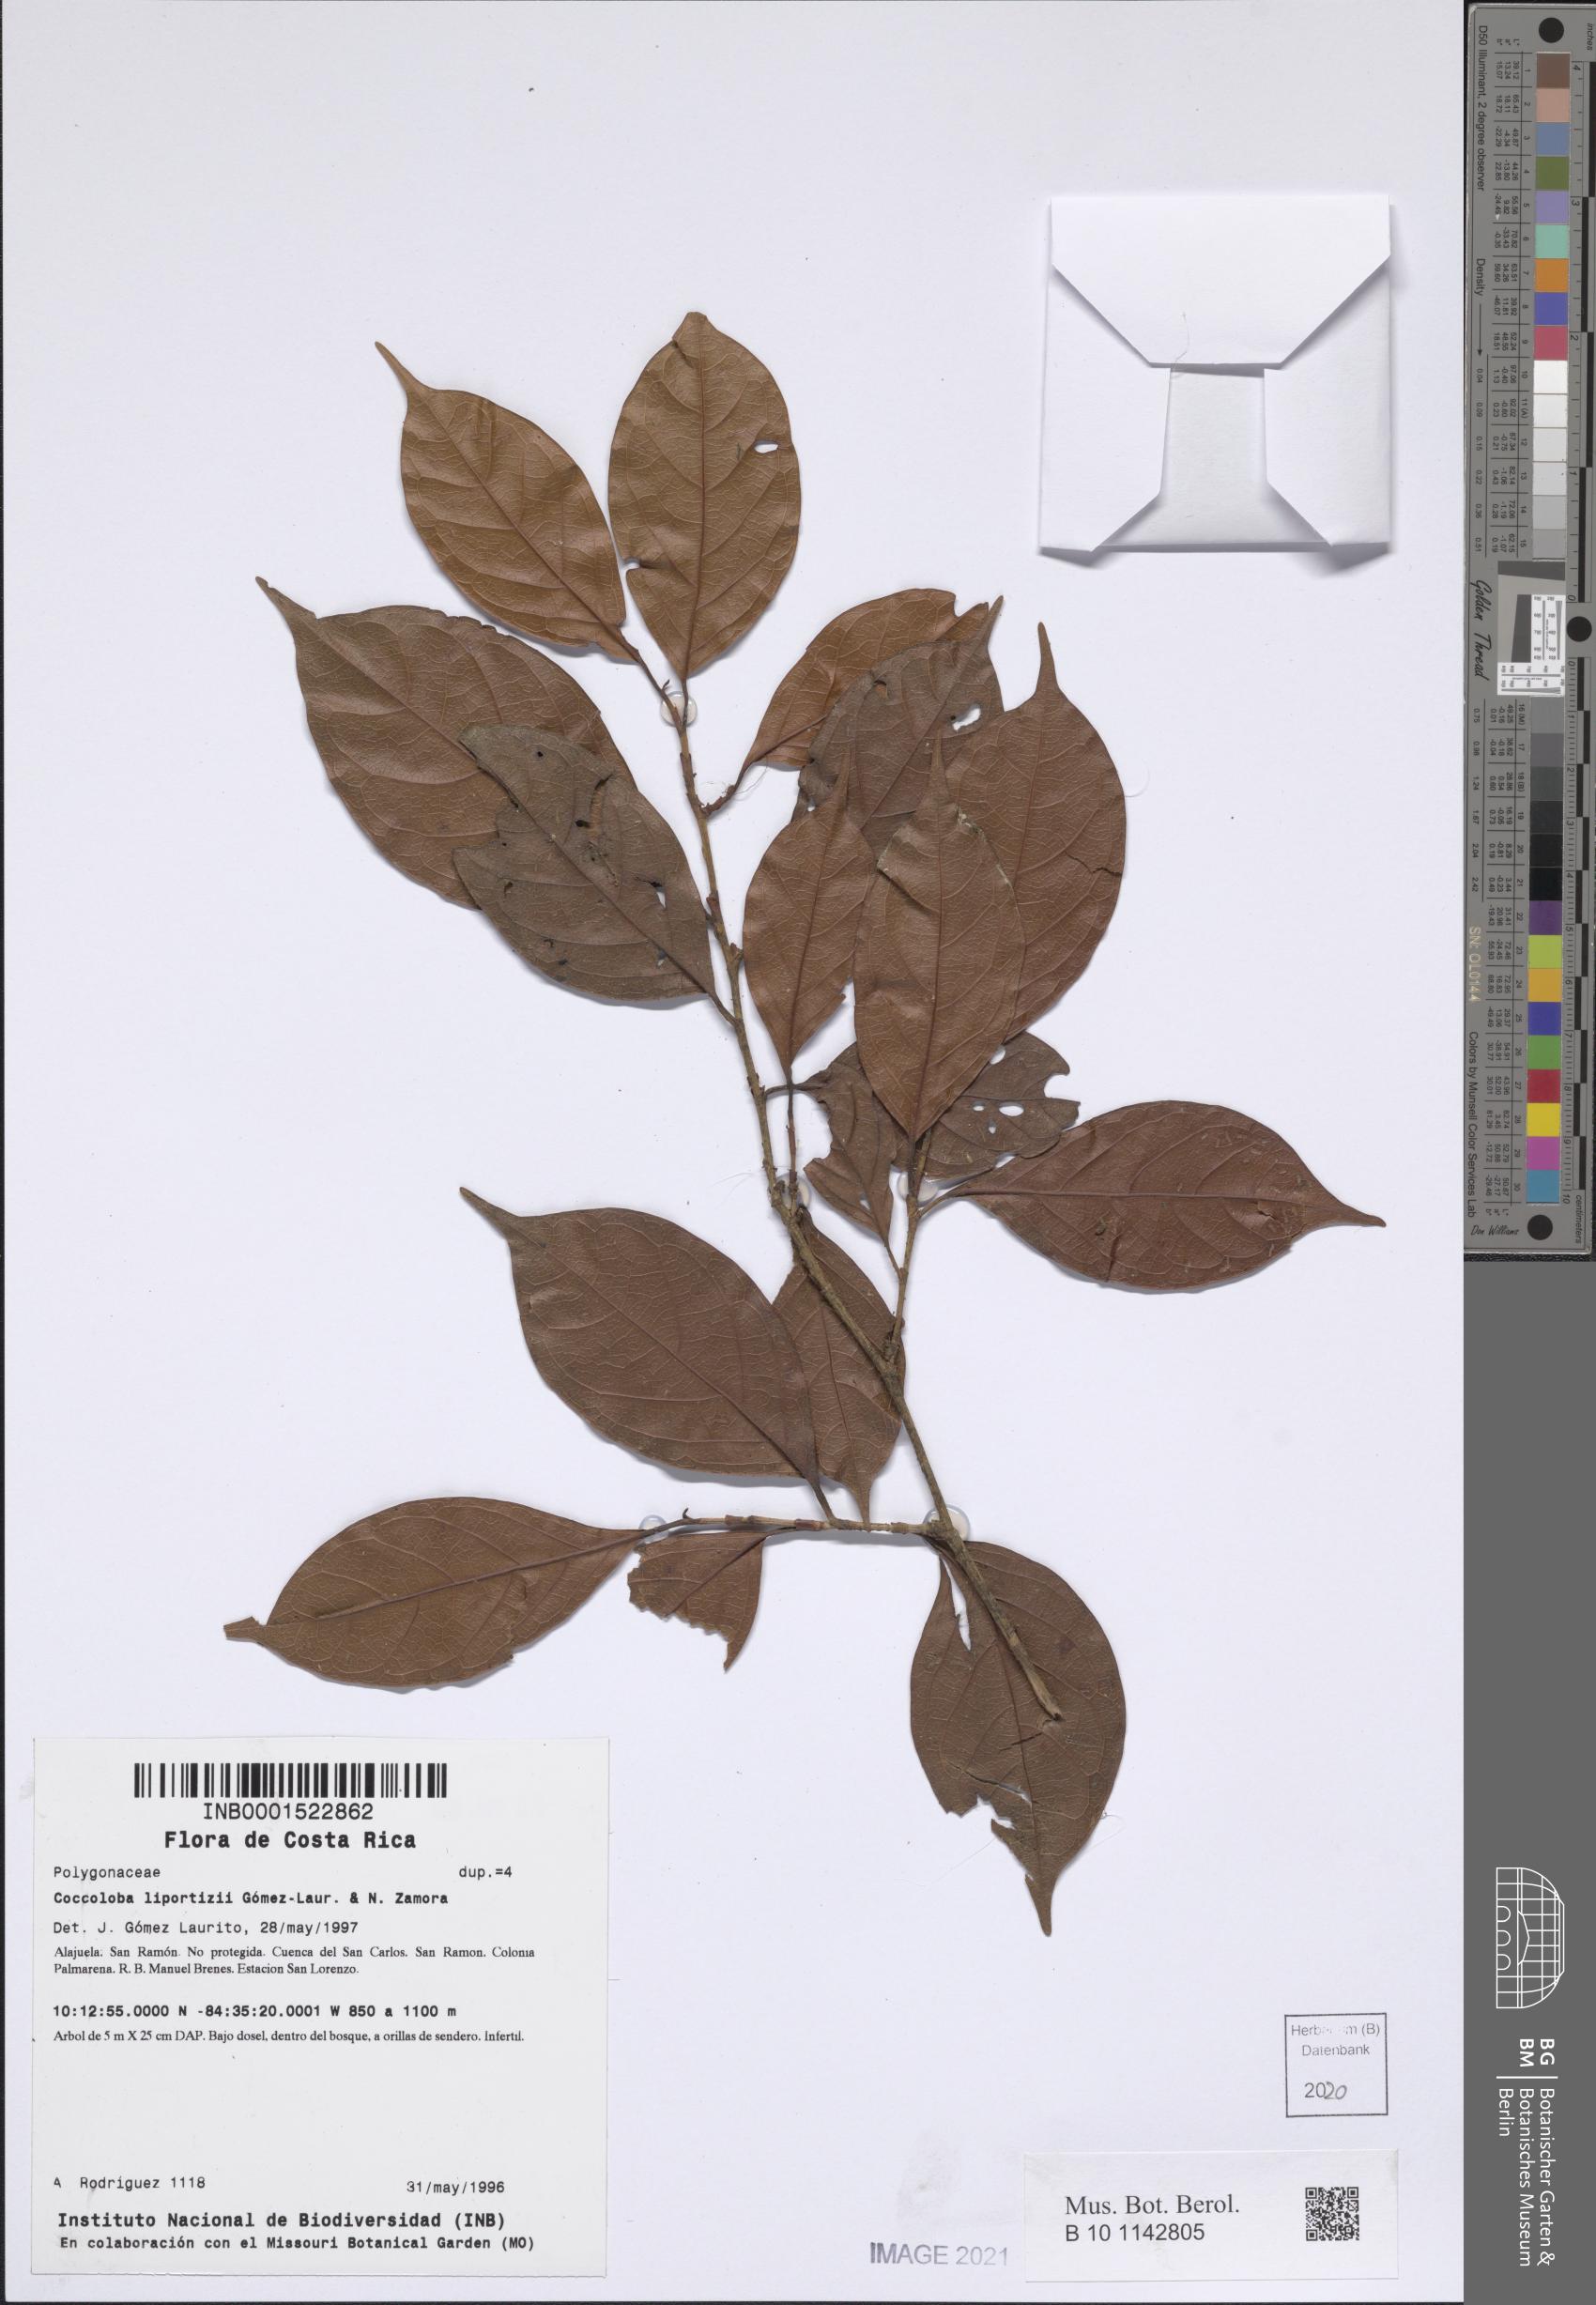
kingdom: Plantae
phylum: Tracheophyta
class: Magnoliopsida
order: Caryophyllales
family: Polygonaceae
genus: Coccoloba
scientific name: Coccoloba liportizii
